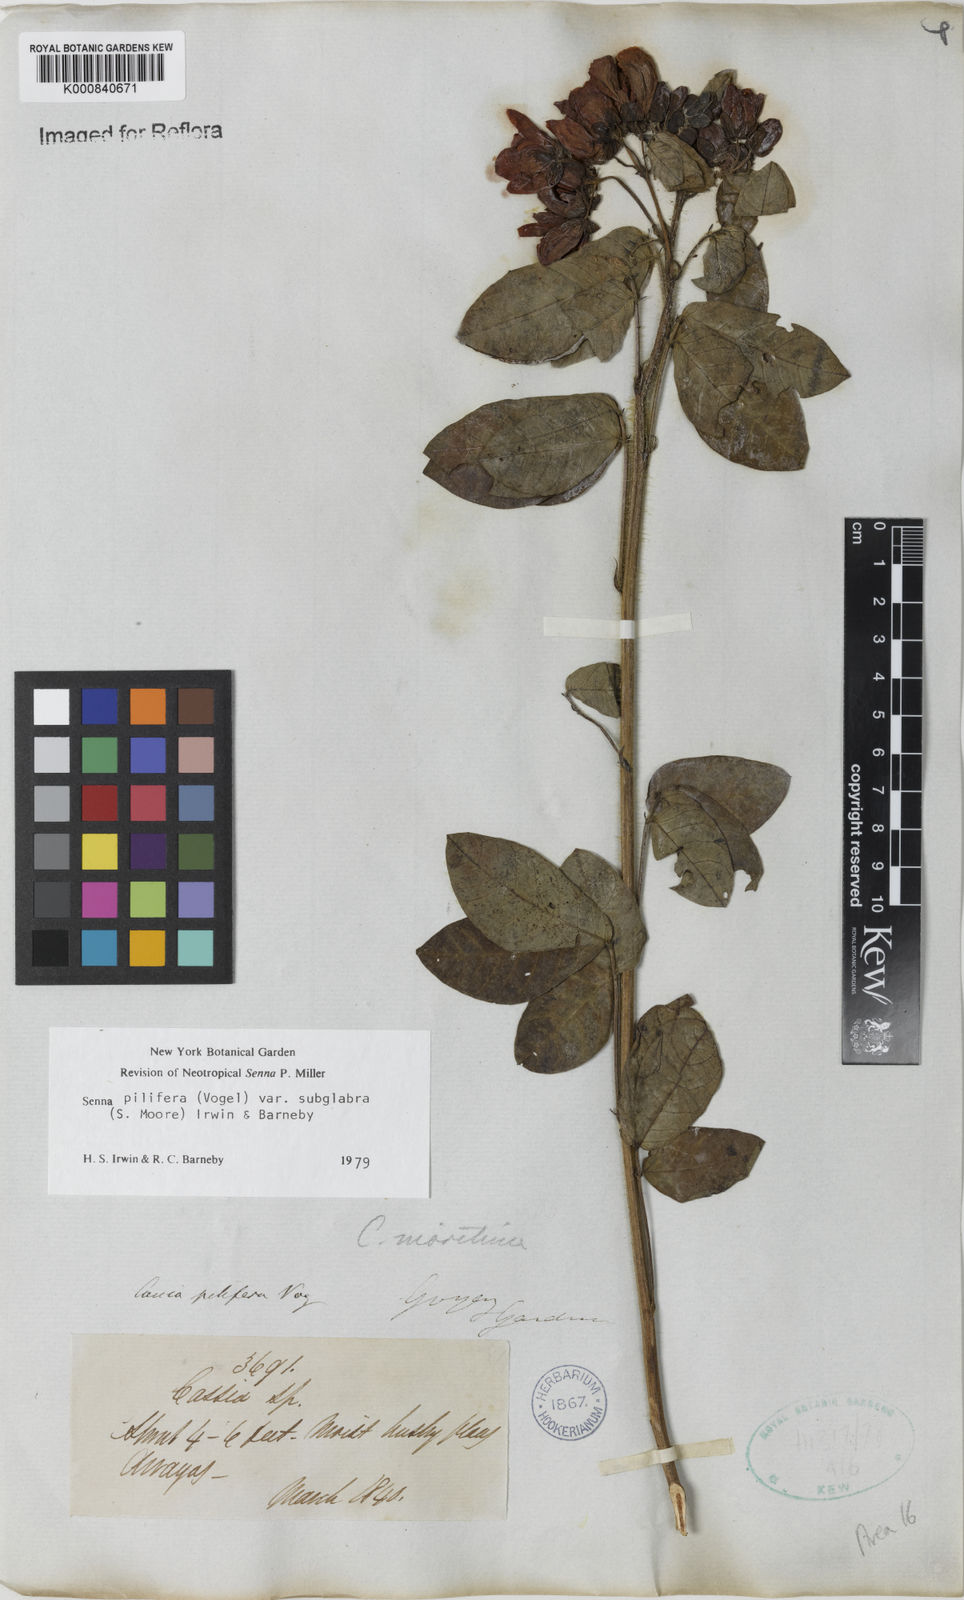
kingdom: Plantae
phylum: Tracheophyta
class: Magnoliopsida
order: Fabales
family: Fabaceae
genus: Senna
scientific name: Senna pilifera
